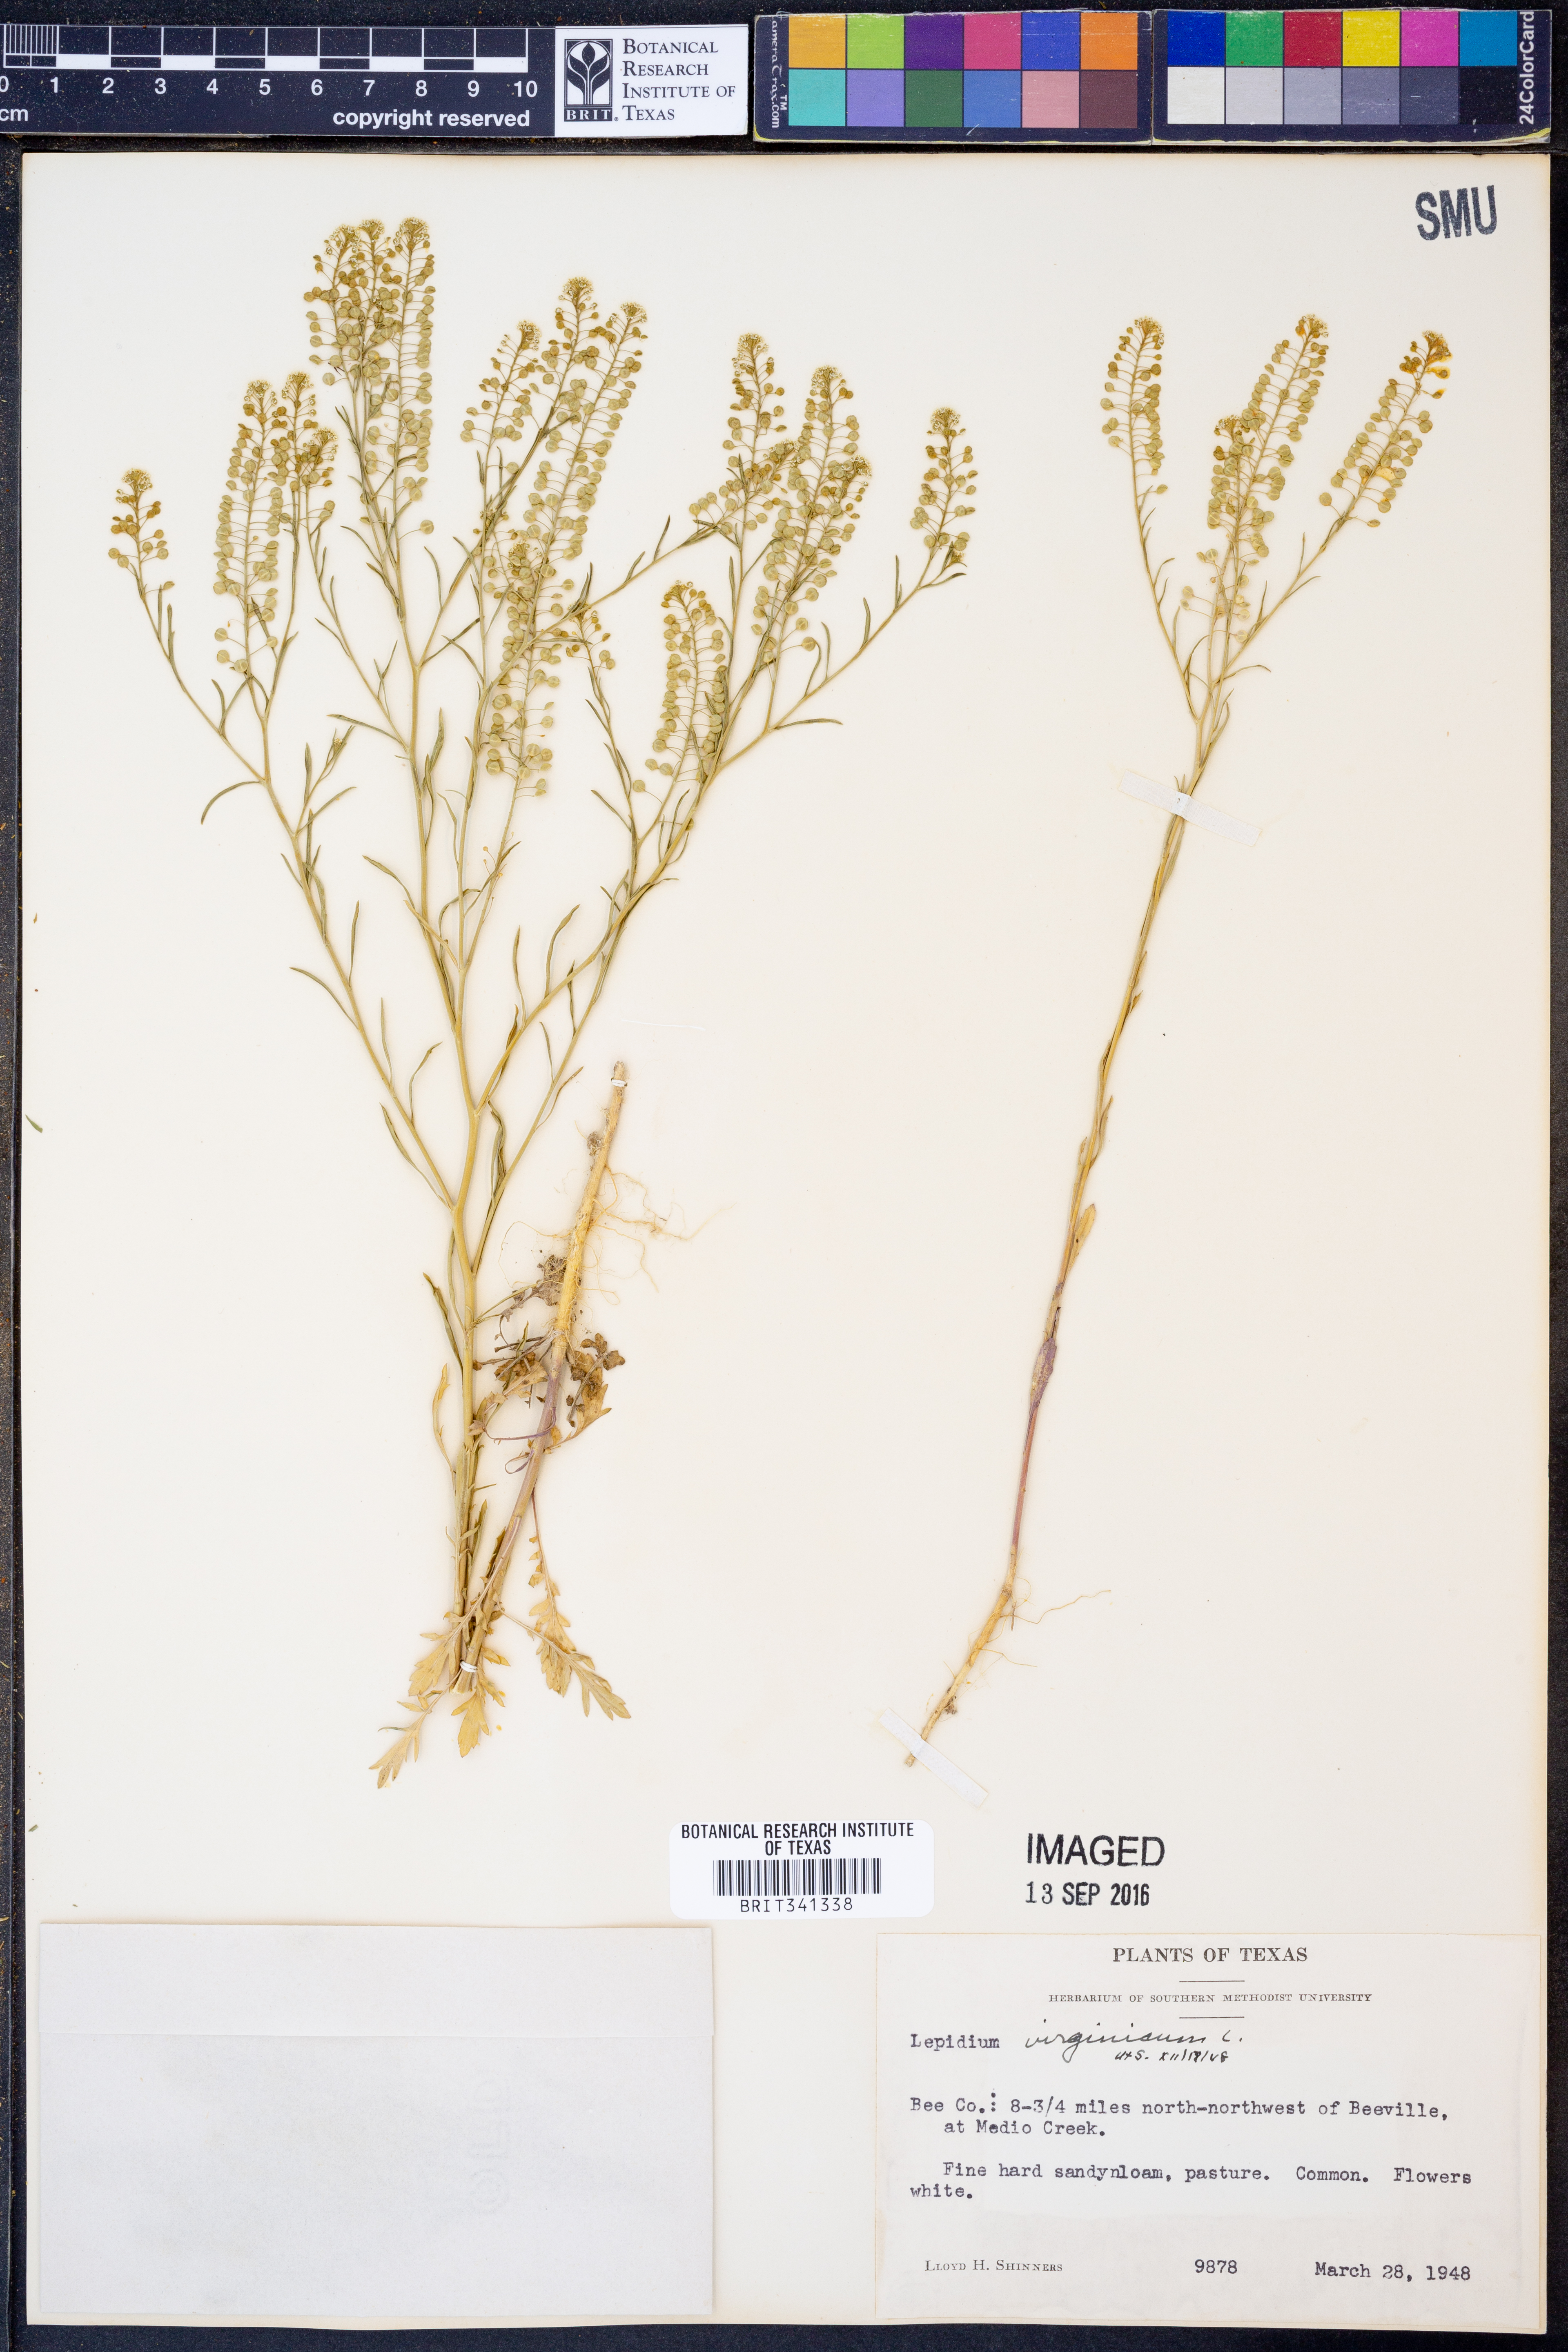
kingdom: Plantae
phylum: Tracheophyta
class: Magnoliopsida
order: Brassicales
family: Brassicaceae
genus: Lepidium
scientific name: Lepidium virginicum
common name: Least pepperwort
